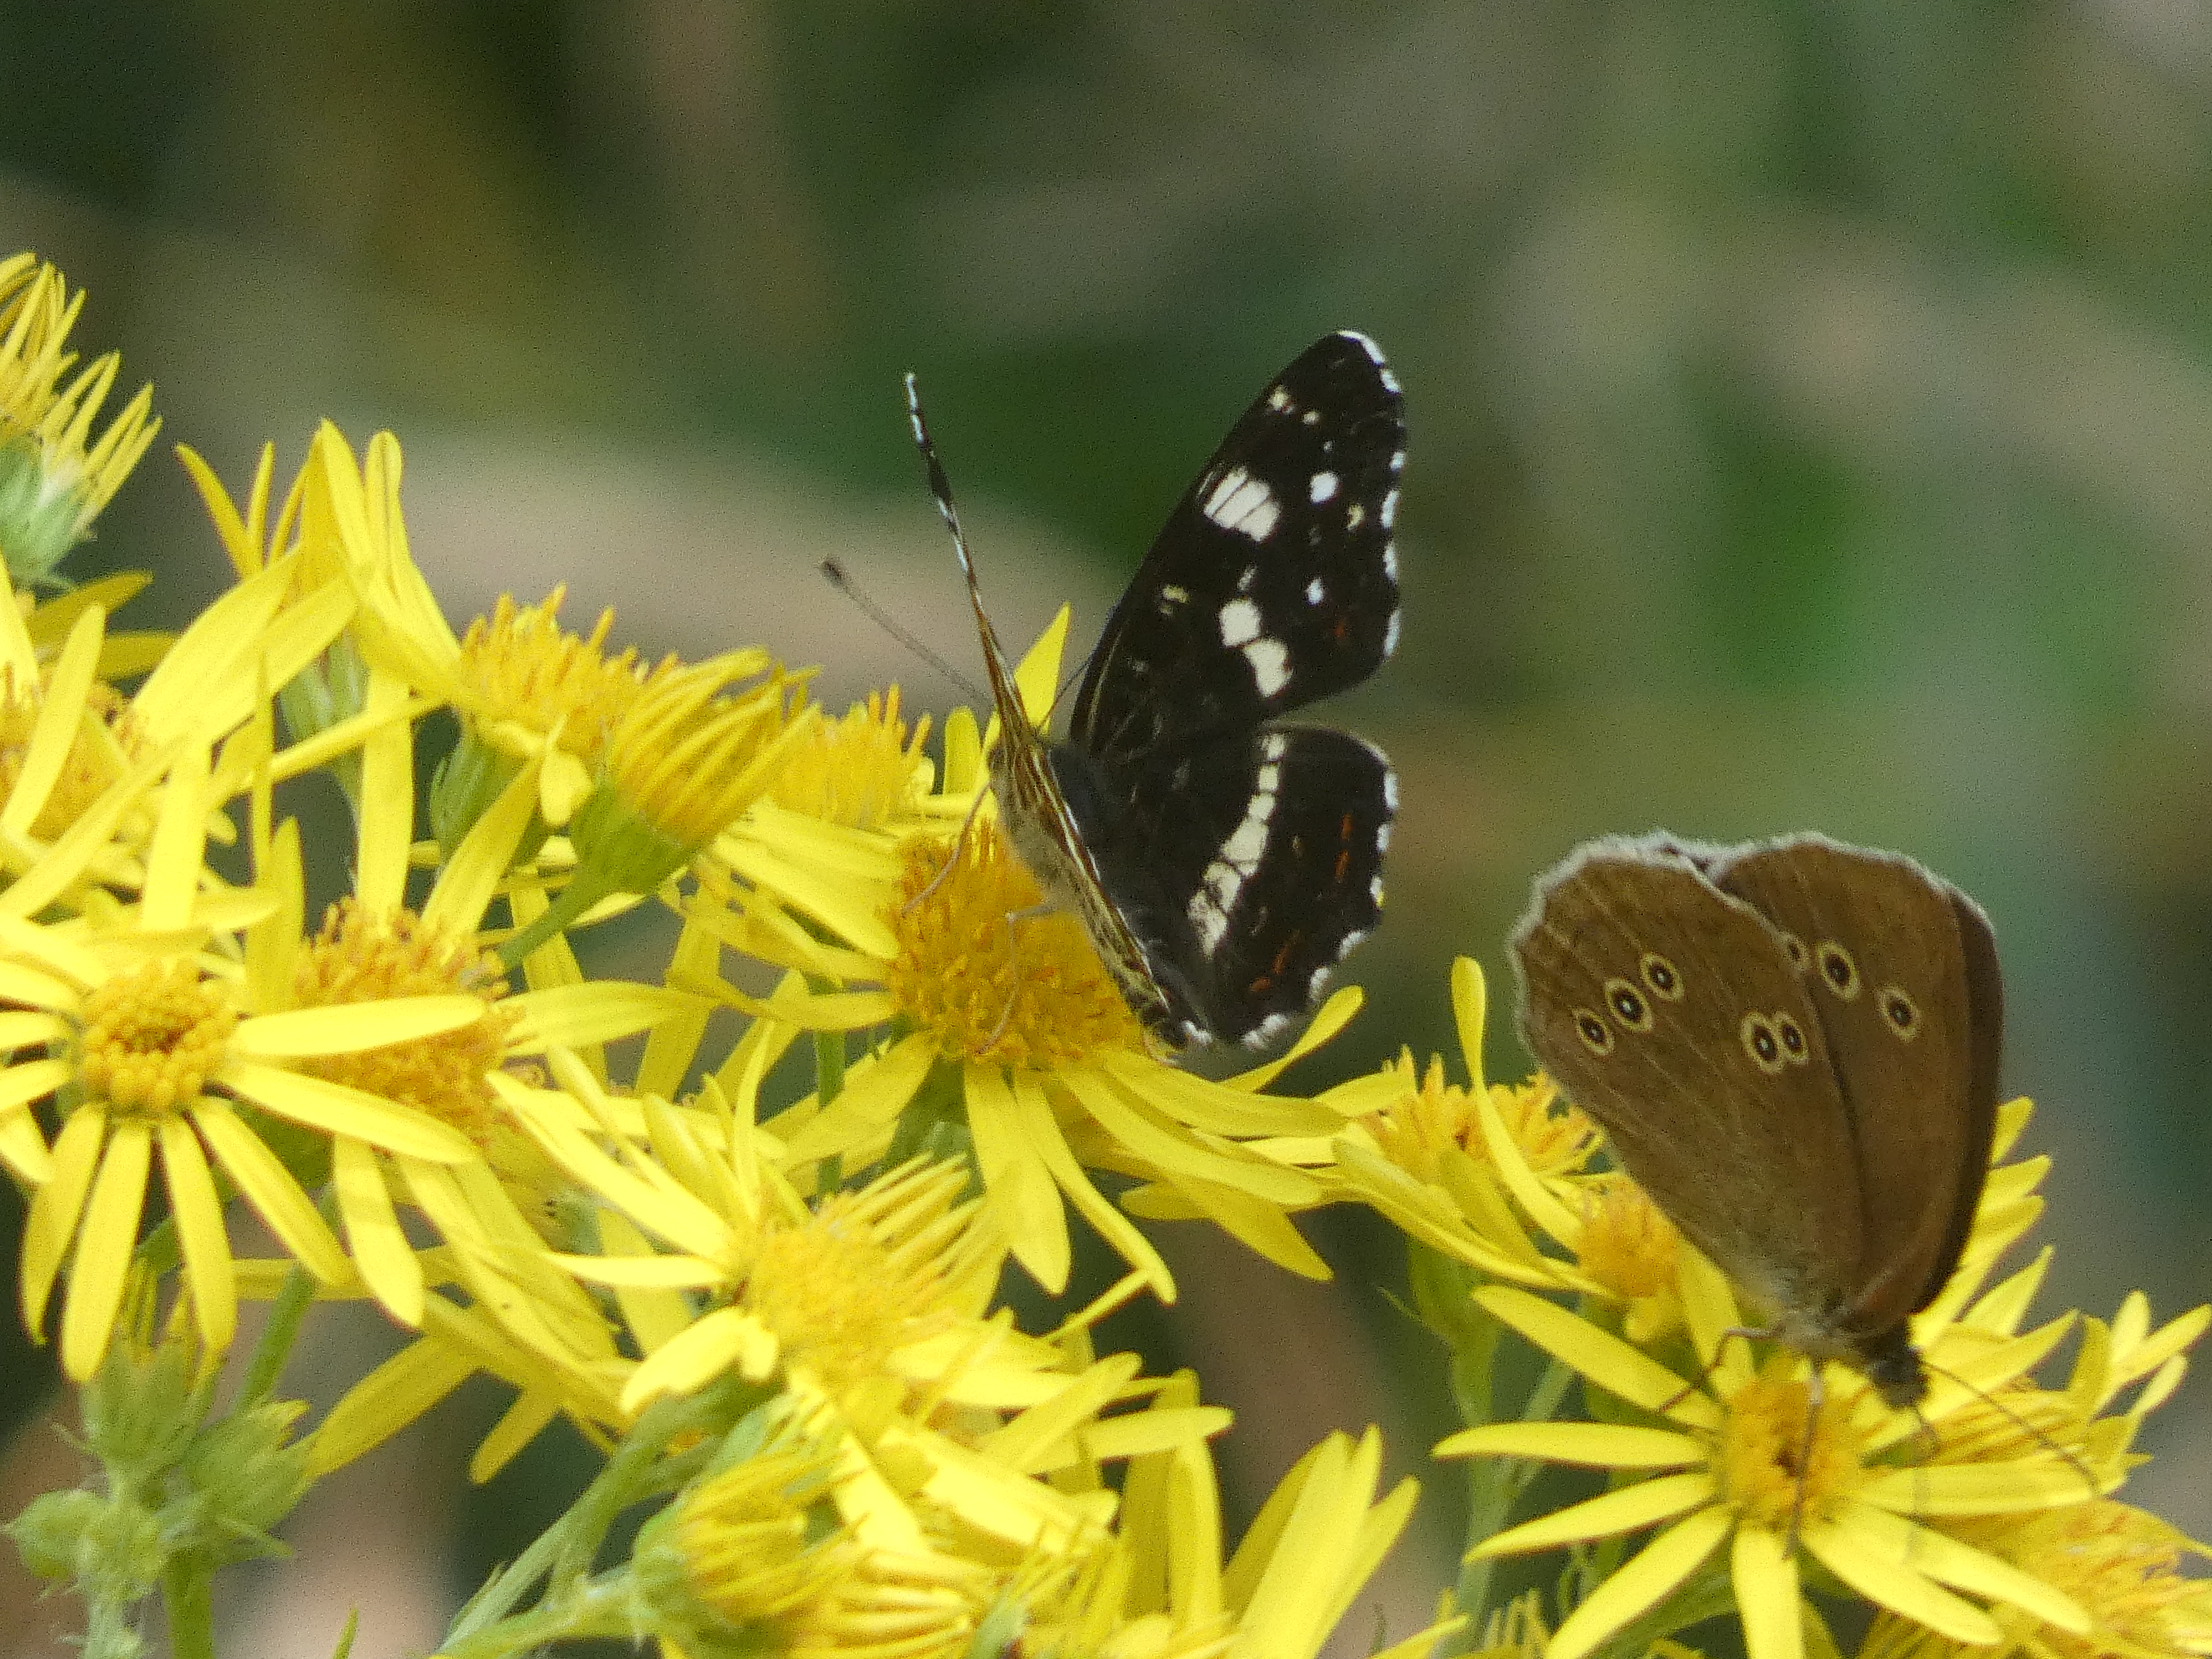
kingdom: Animalia
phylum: Arthropoda
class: Insecta
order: Lepidoptera
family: Nymphalidae
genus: Aphantopus
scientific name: Aphantopus hyperantus
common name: Engrandøje
